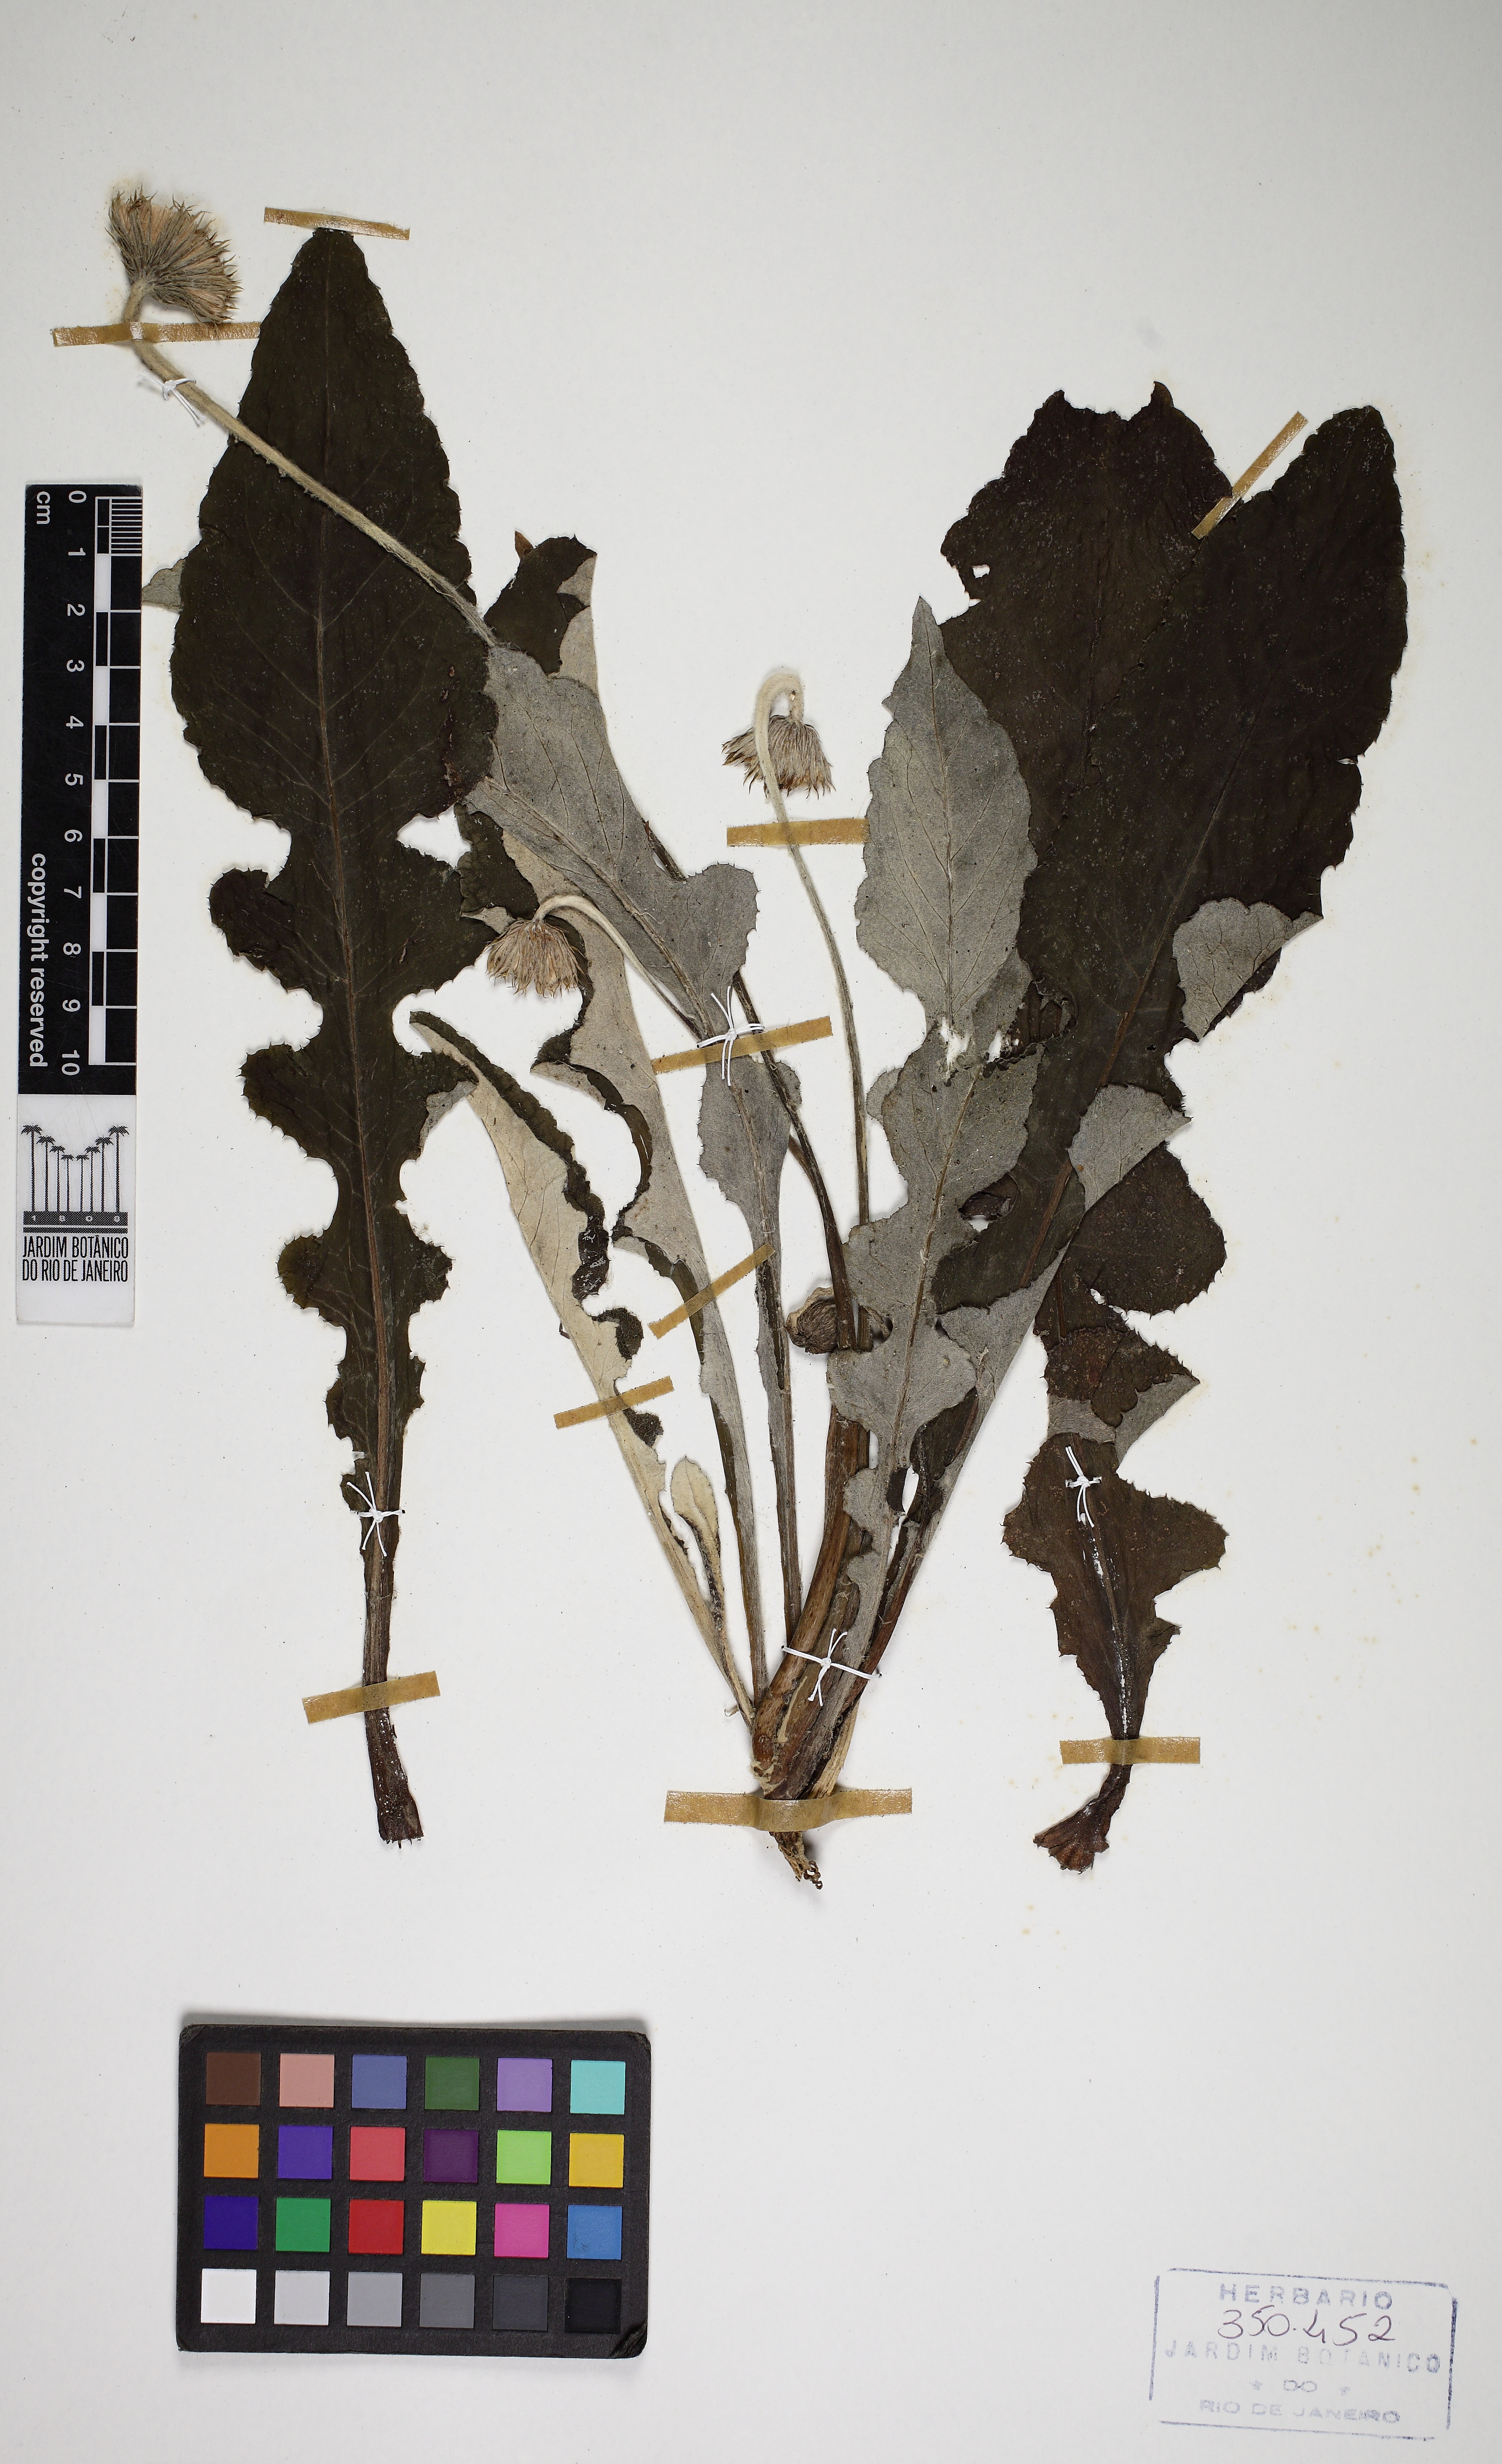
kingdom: Plantae
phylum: Tracheophyta
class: Magnoliopsida
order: Asterales
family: Asteraceae
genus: Chaptalia
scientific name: Chaptalia nutans
